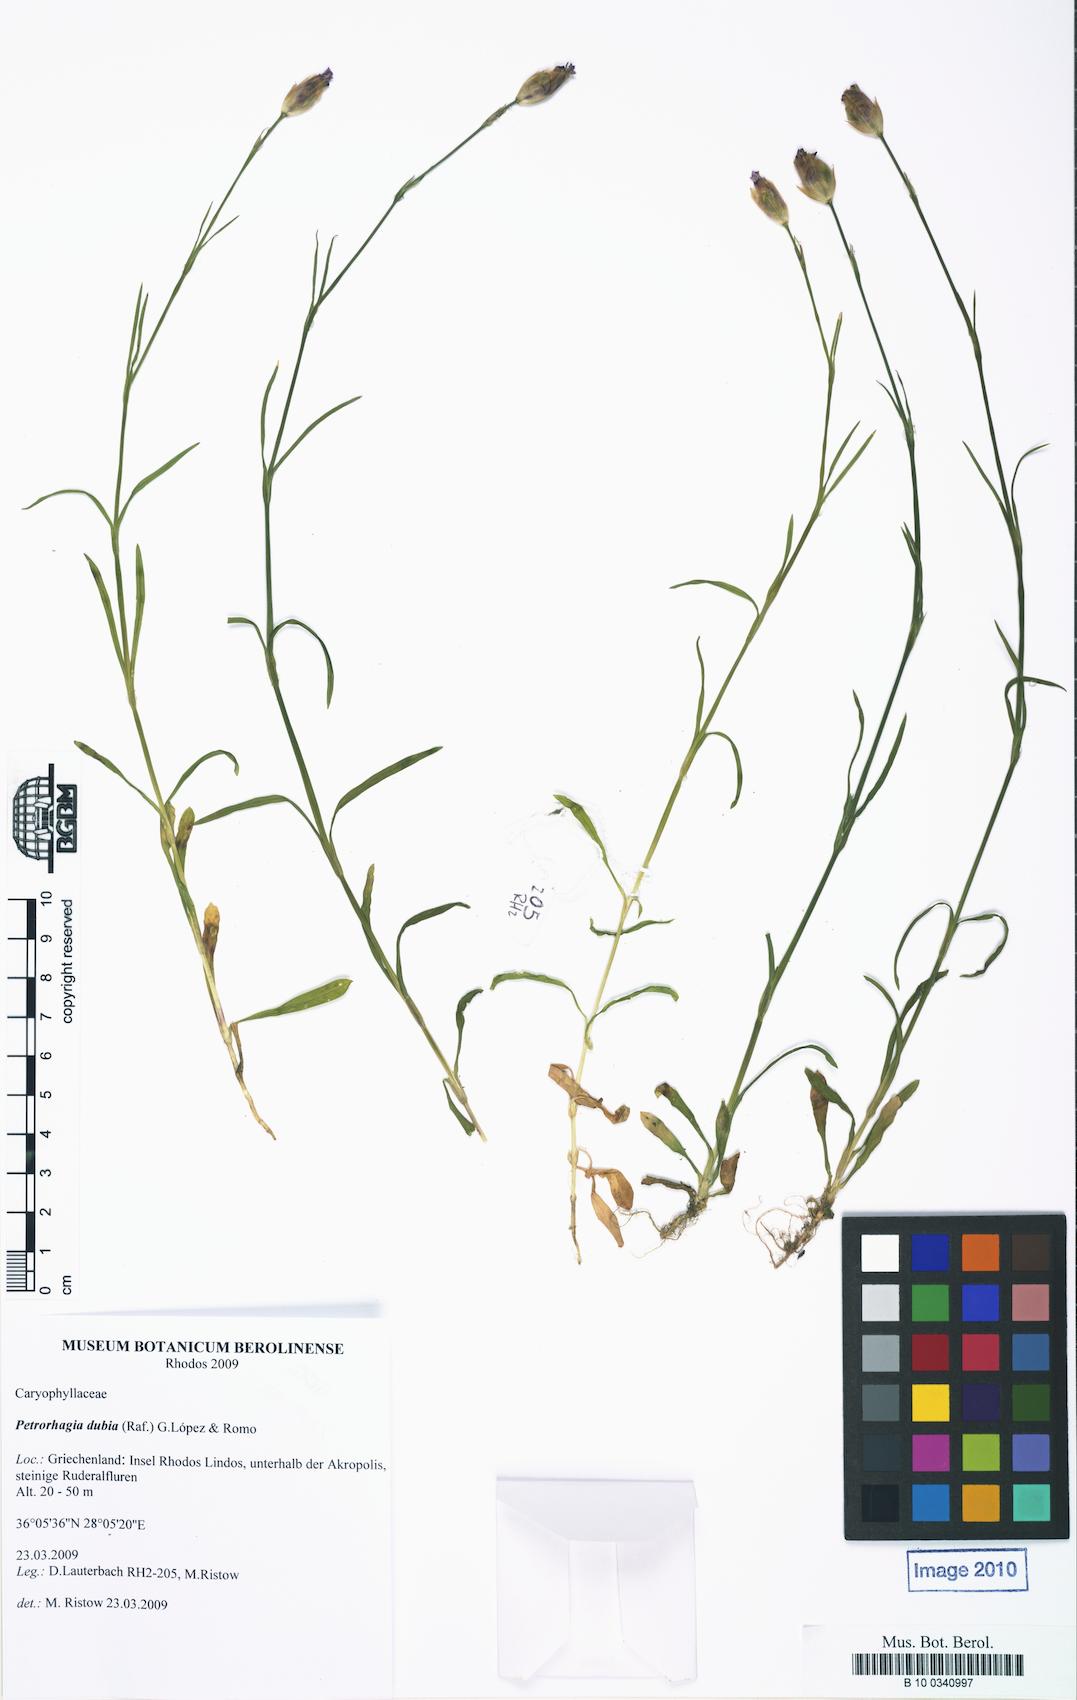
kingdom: Plantae
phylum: Tracheophyta
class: Magnoliopsida
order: Caryophyllales
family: Caryophyllaceae
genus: Petrorhagia
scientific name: Petrorhagia dubia
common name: Hairypink
